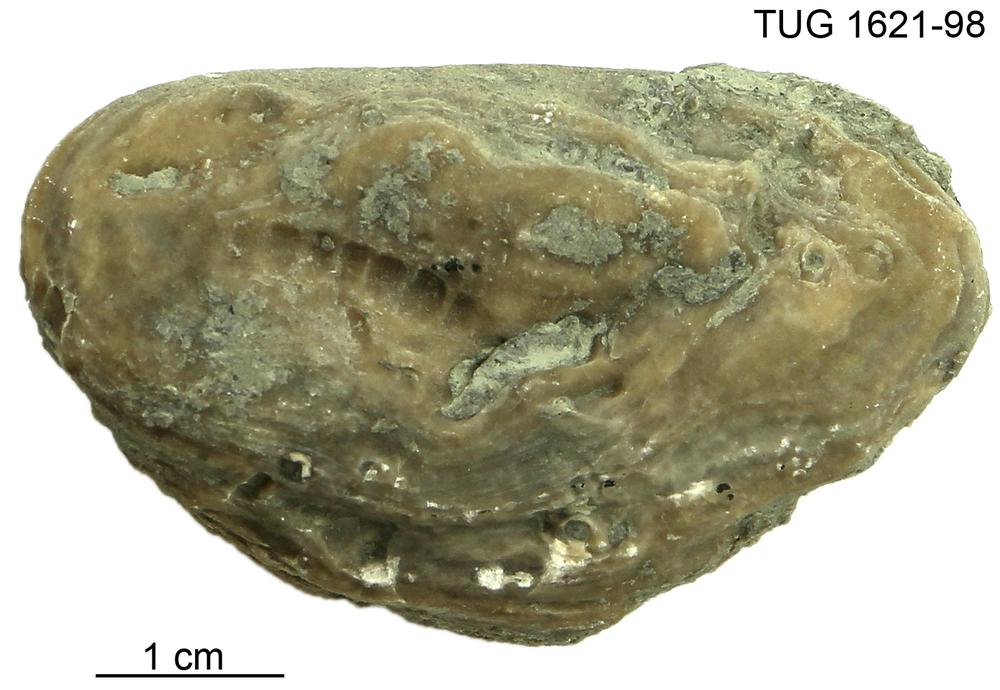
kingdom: Animalia
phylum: Porifera
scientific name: Porifera
